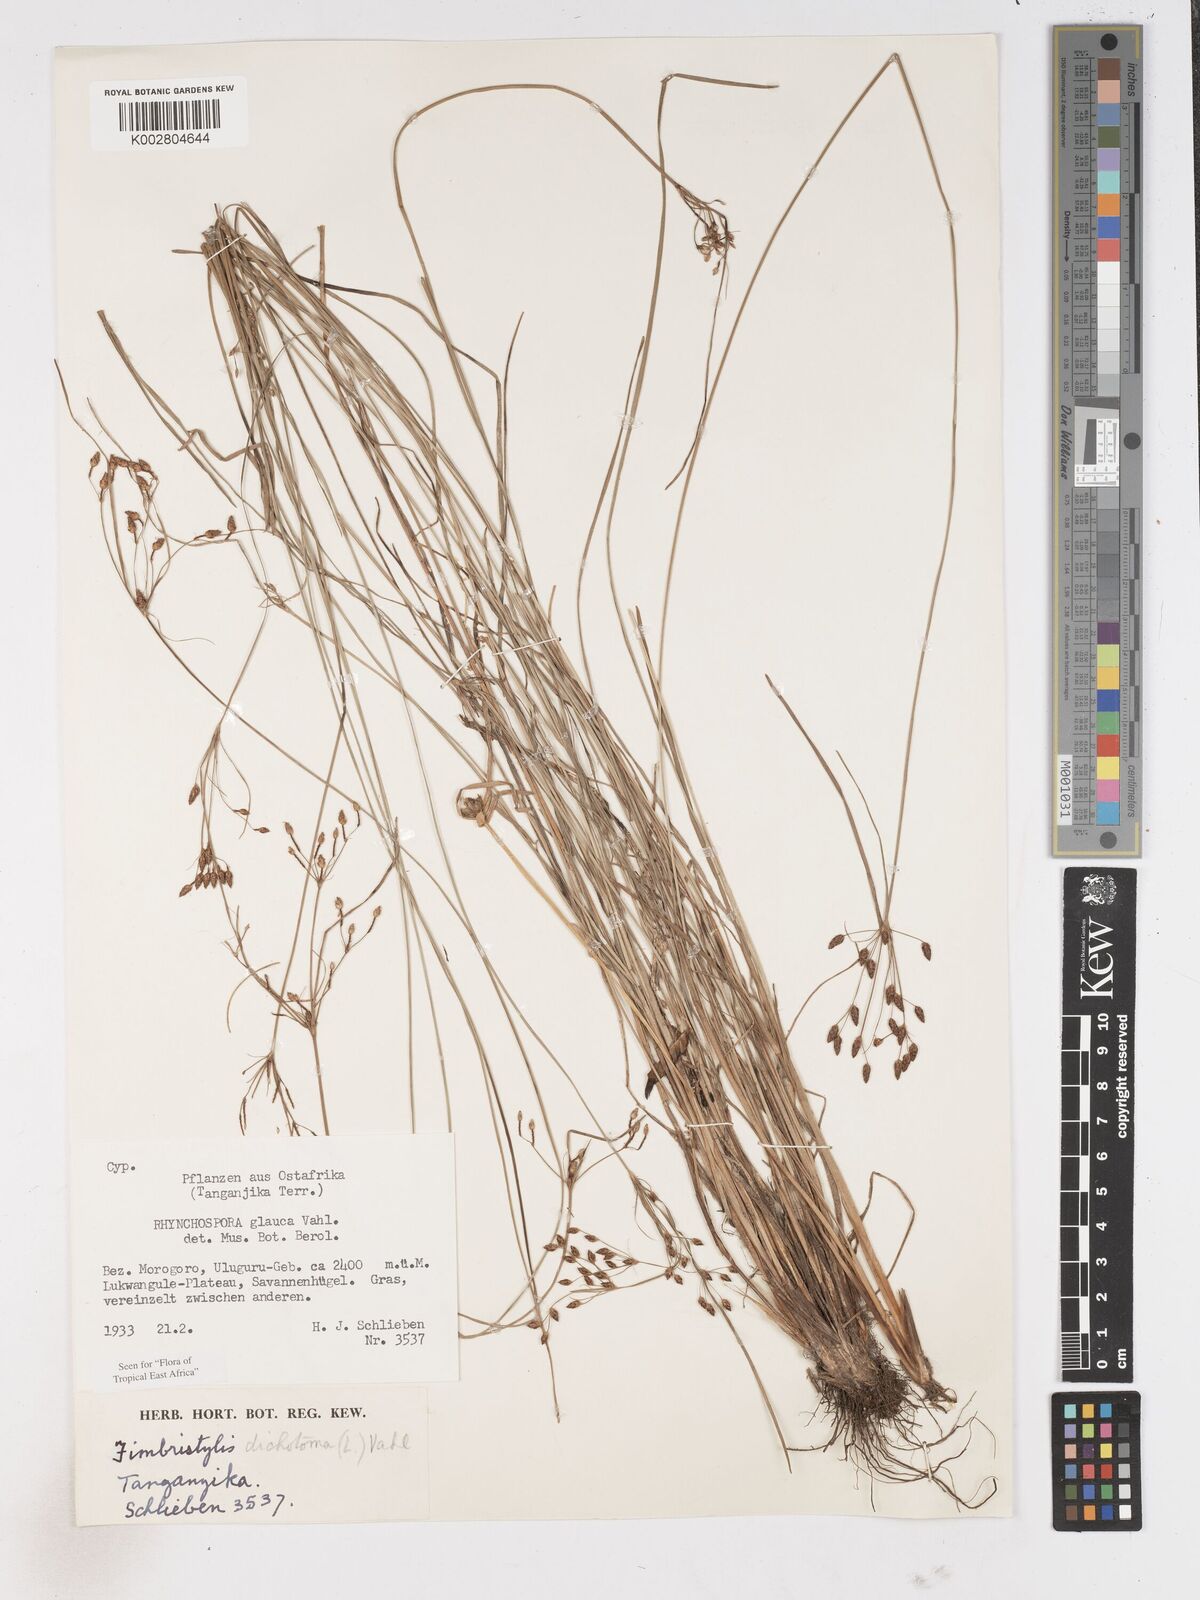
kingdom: Plantae
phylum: Tracheophyta
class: Liliopsida
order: Poales
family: Cyperaceae
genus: Fimbristylis
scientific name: Fimbristylis dichotoma
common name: Forked fimbry
